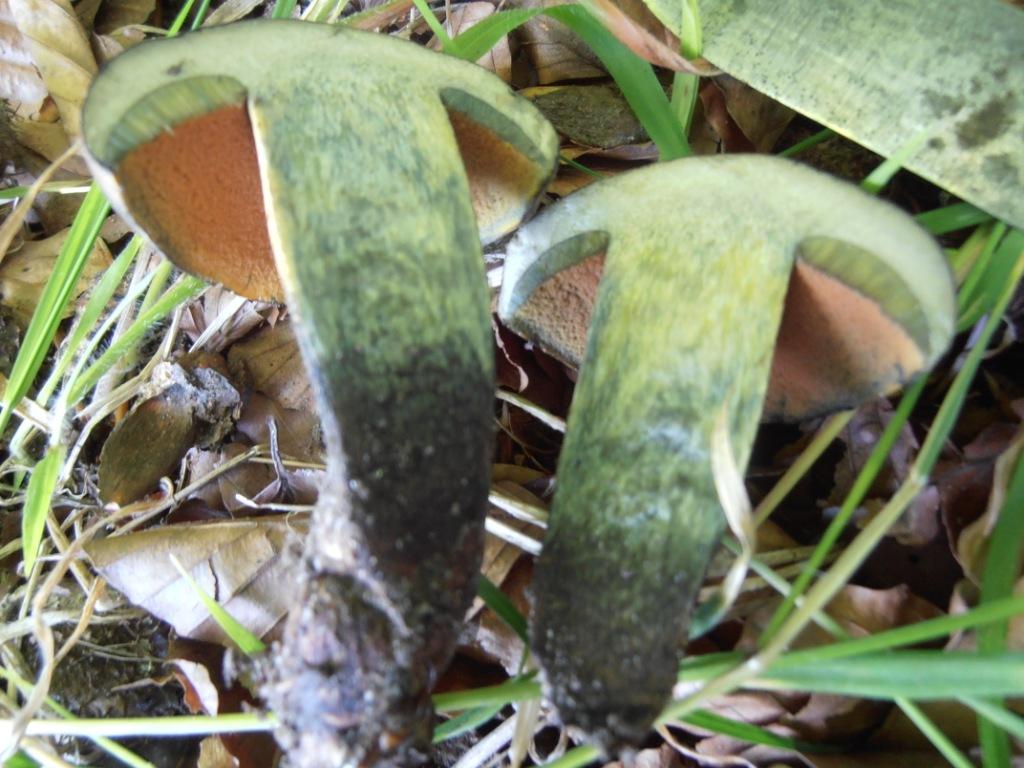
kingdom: Fungi
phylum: Basidiomycota
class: Agaricomycetes
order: Boletales
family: Boletaceae
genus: Suillellus
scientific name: Suillellus queletii
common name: glatstokket indigorørhat
